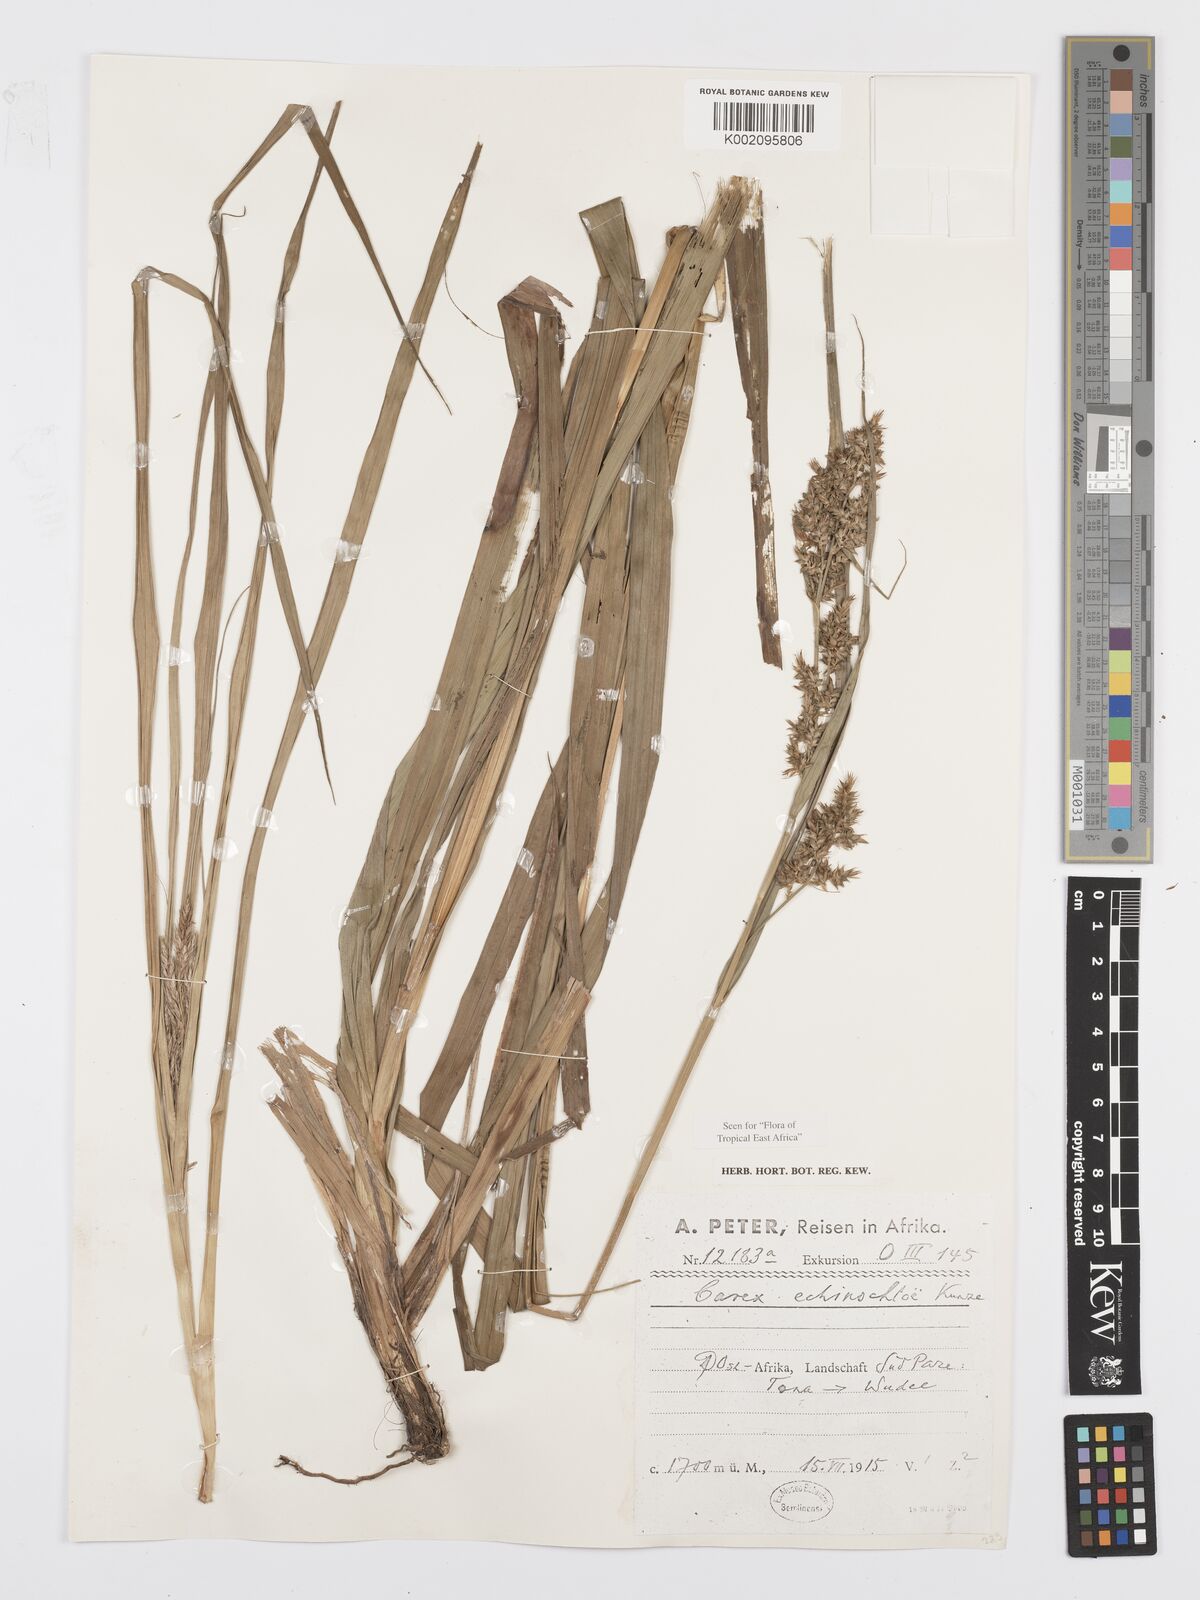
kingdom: Plantae
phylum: Tracheophyta
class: Liliopsida
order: Poales
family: Cyperaceae
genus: Carex
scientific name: Carex echinochloe
